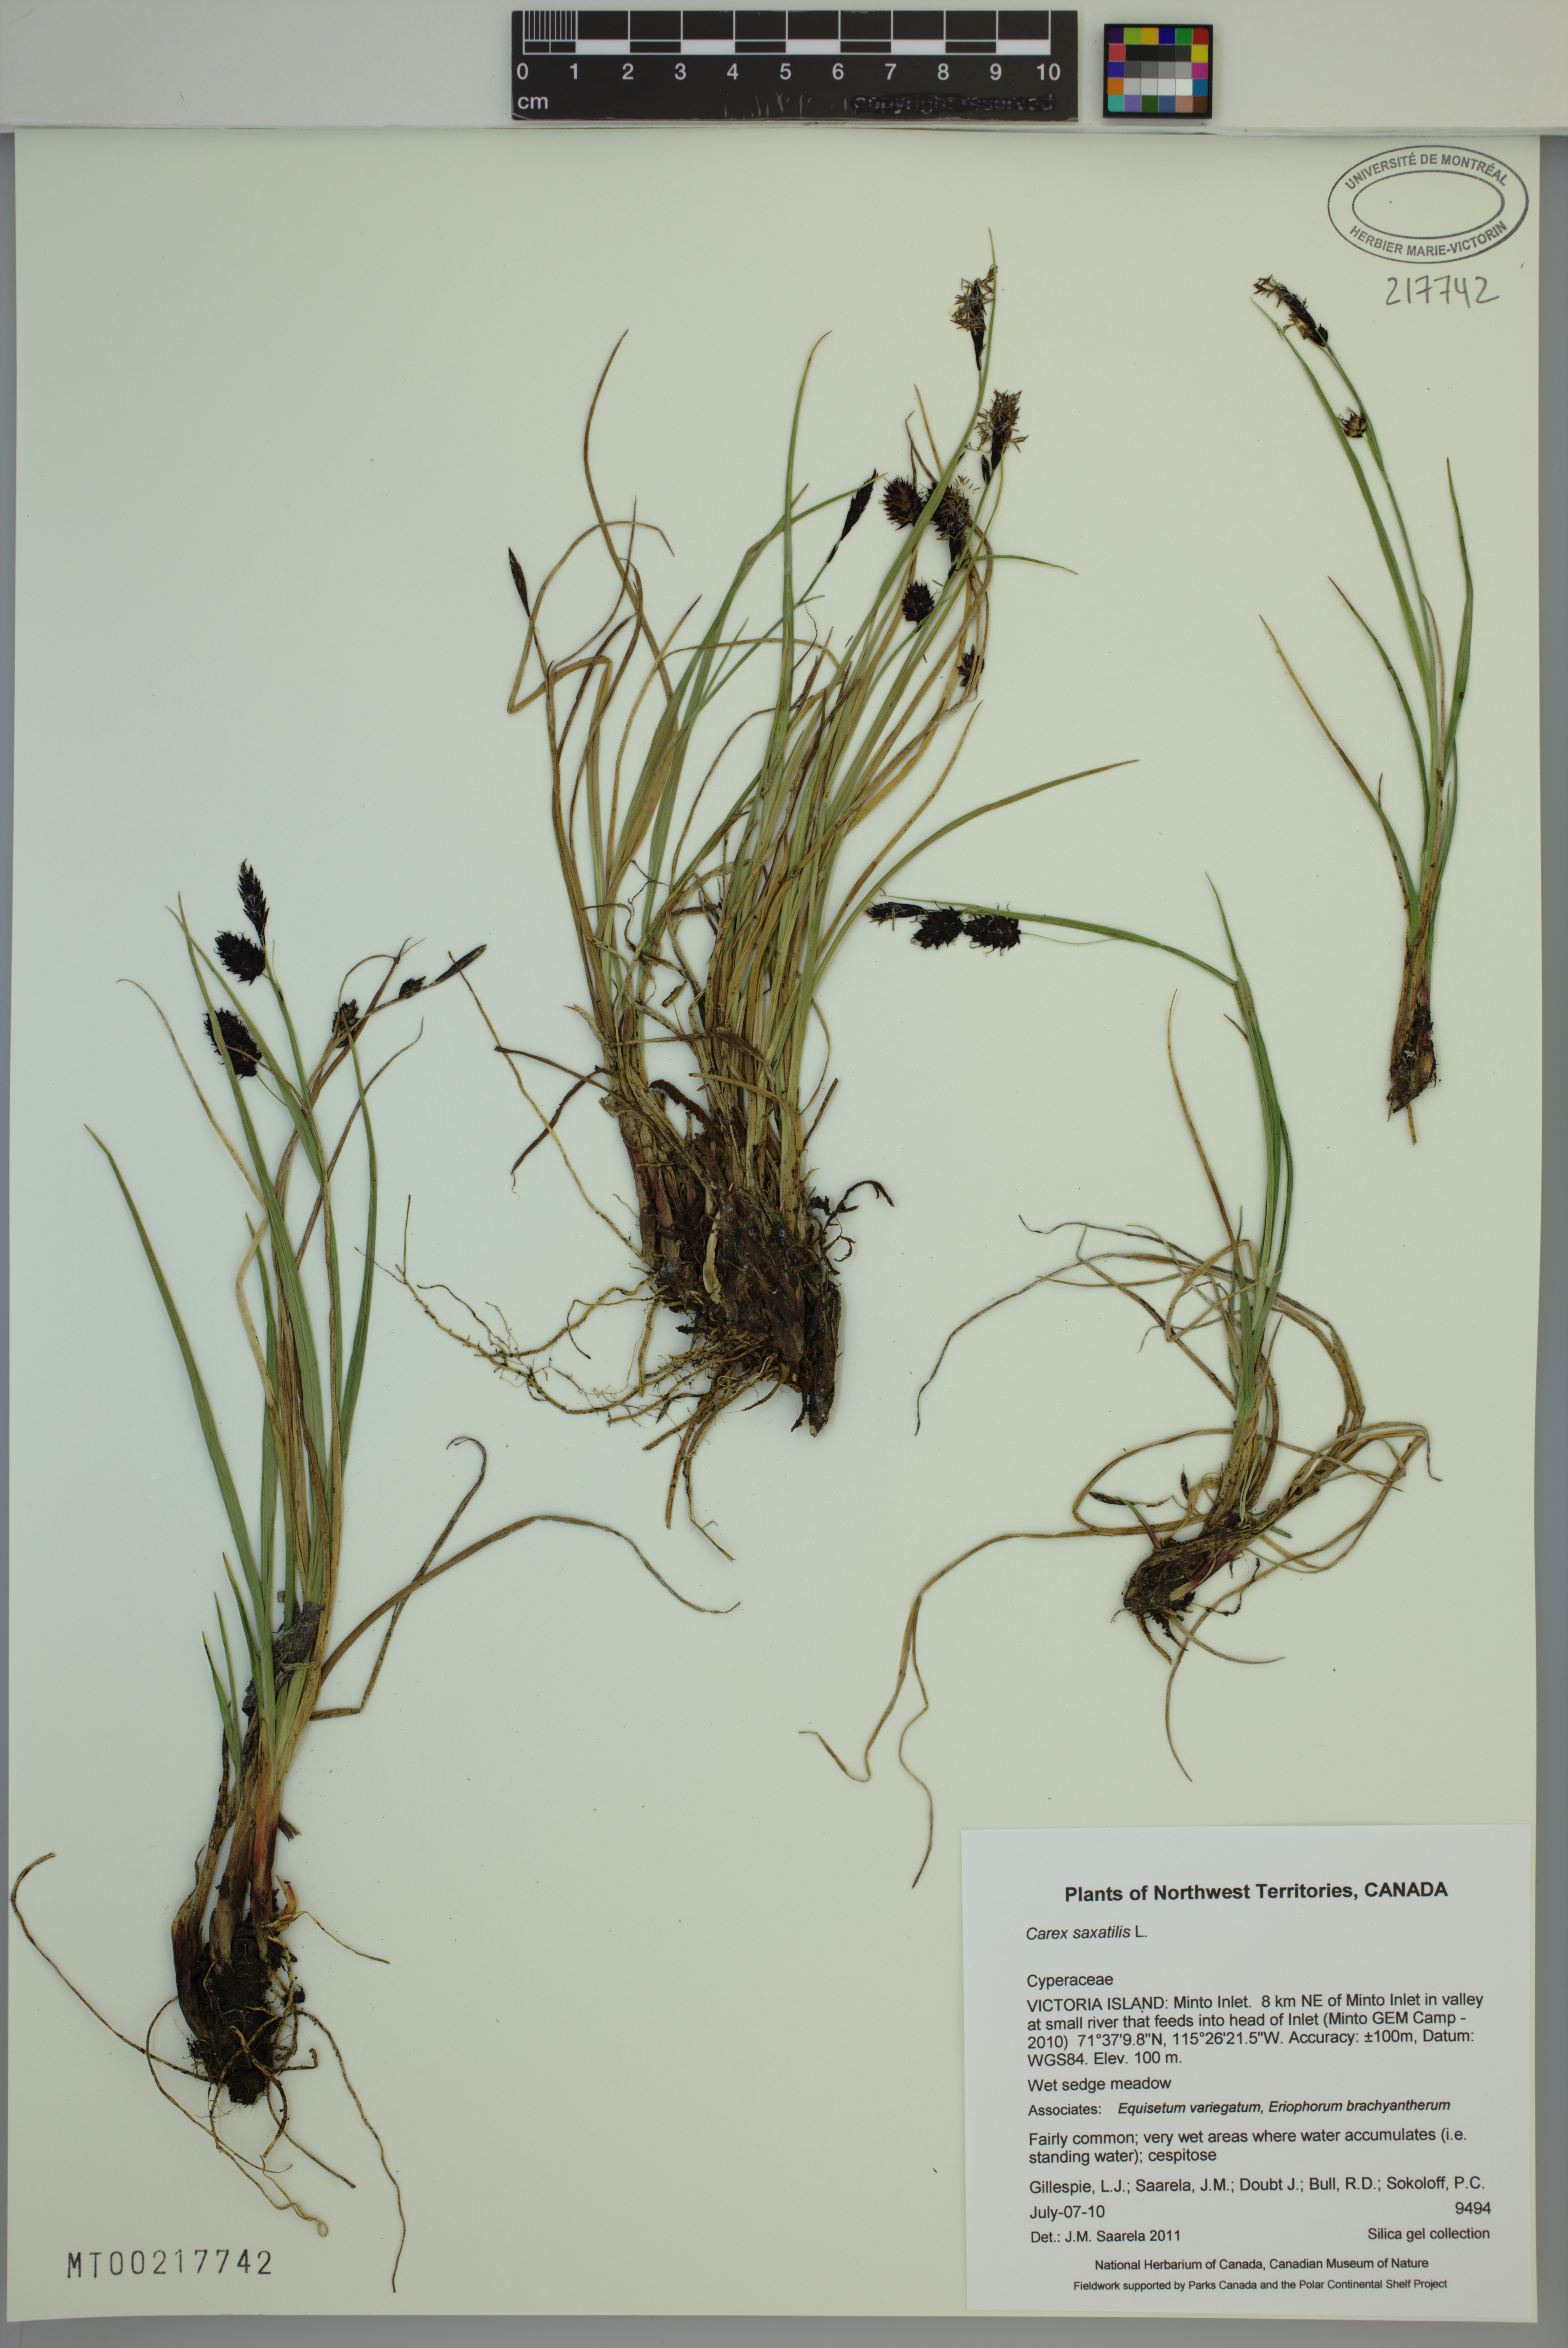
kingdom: Plantae
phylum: Tracheophyta
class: Liliopsida
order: Poales
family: Cyperaceae
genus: Carex
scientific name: Carex saxatilis
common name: Russet sedge
